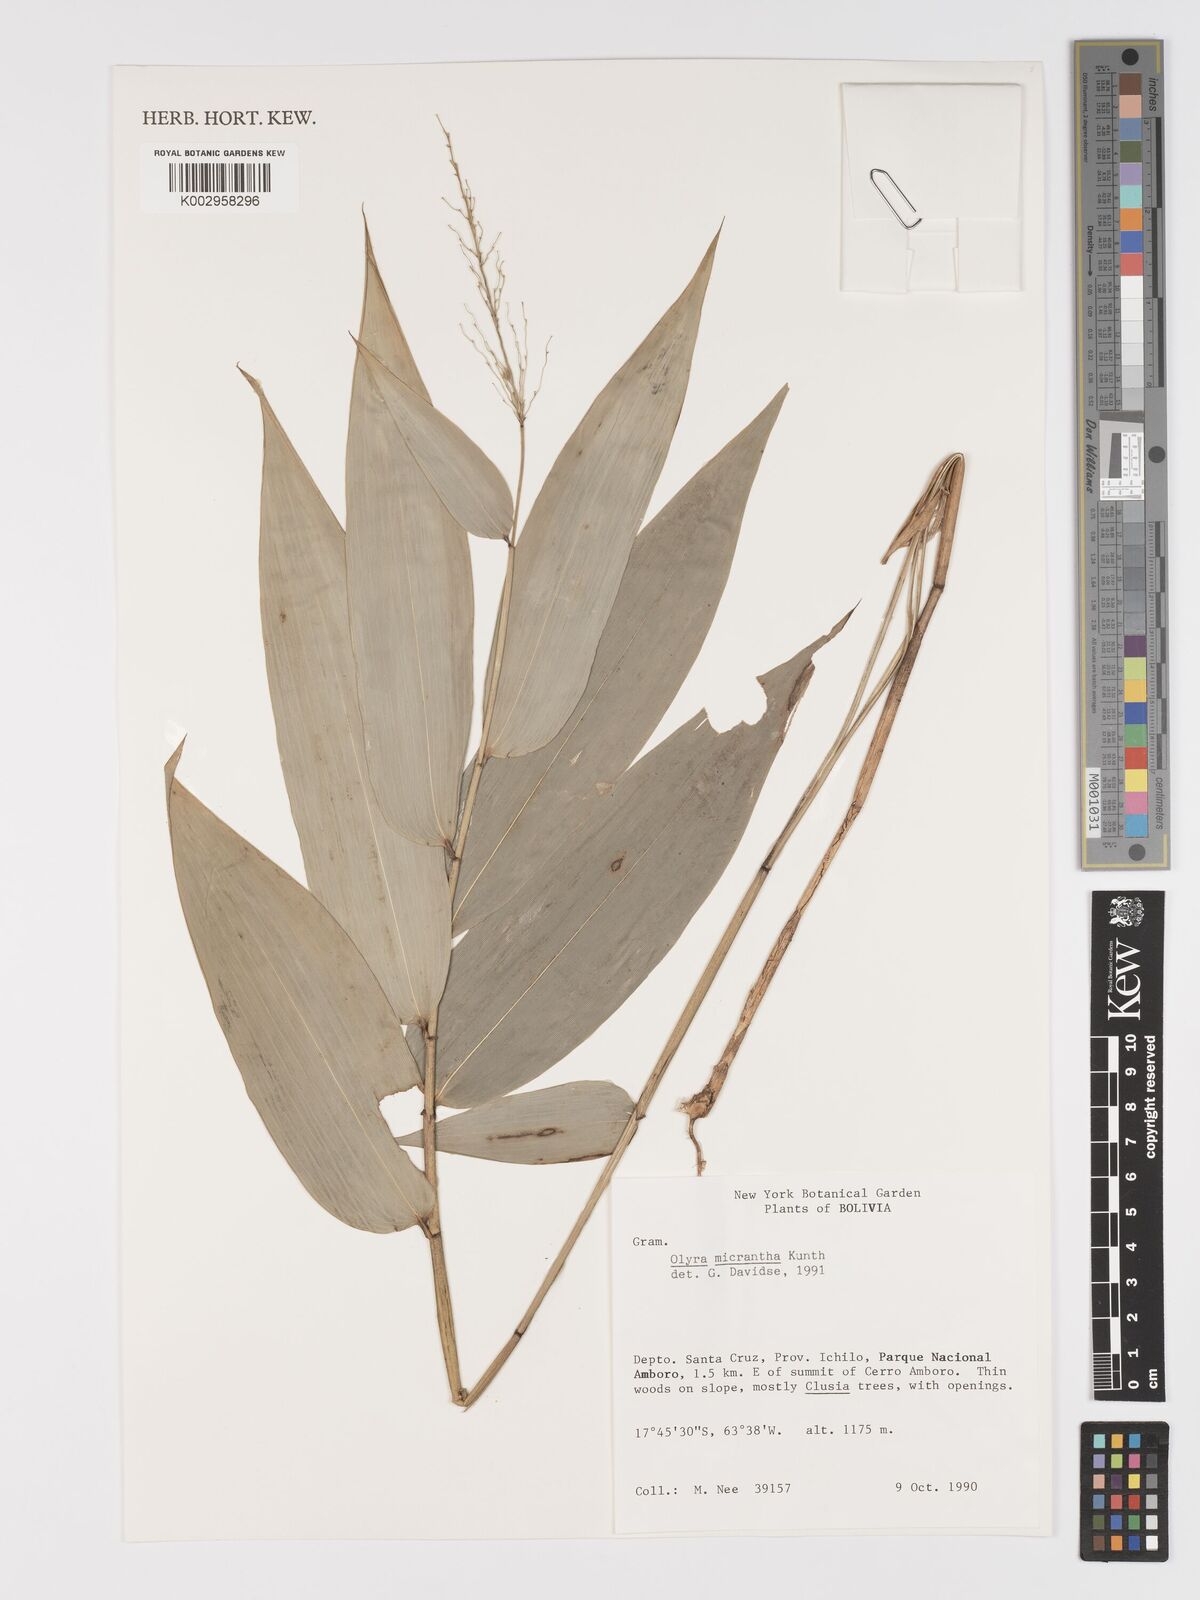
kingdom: Plantae
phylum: Tracheophyta
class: Liliopsida
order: Poales
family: Poaceae
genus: Taquara
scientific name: Taquara micrantha
